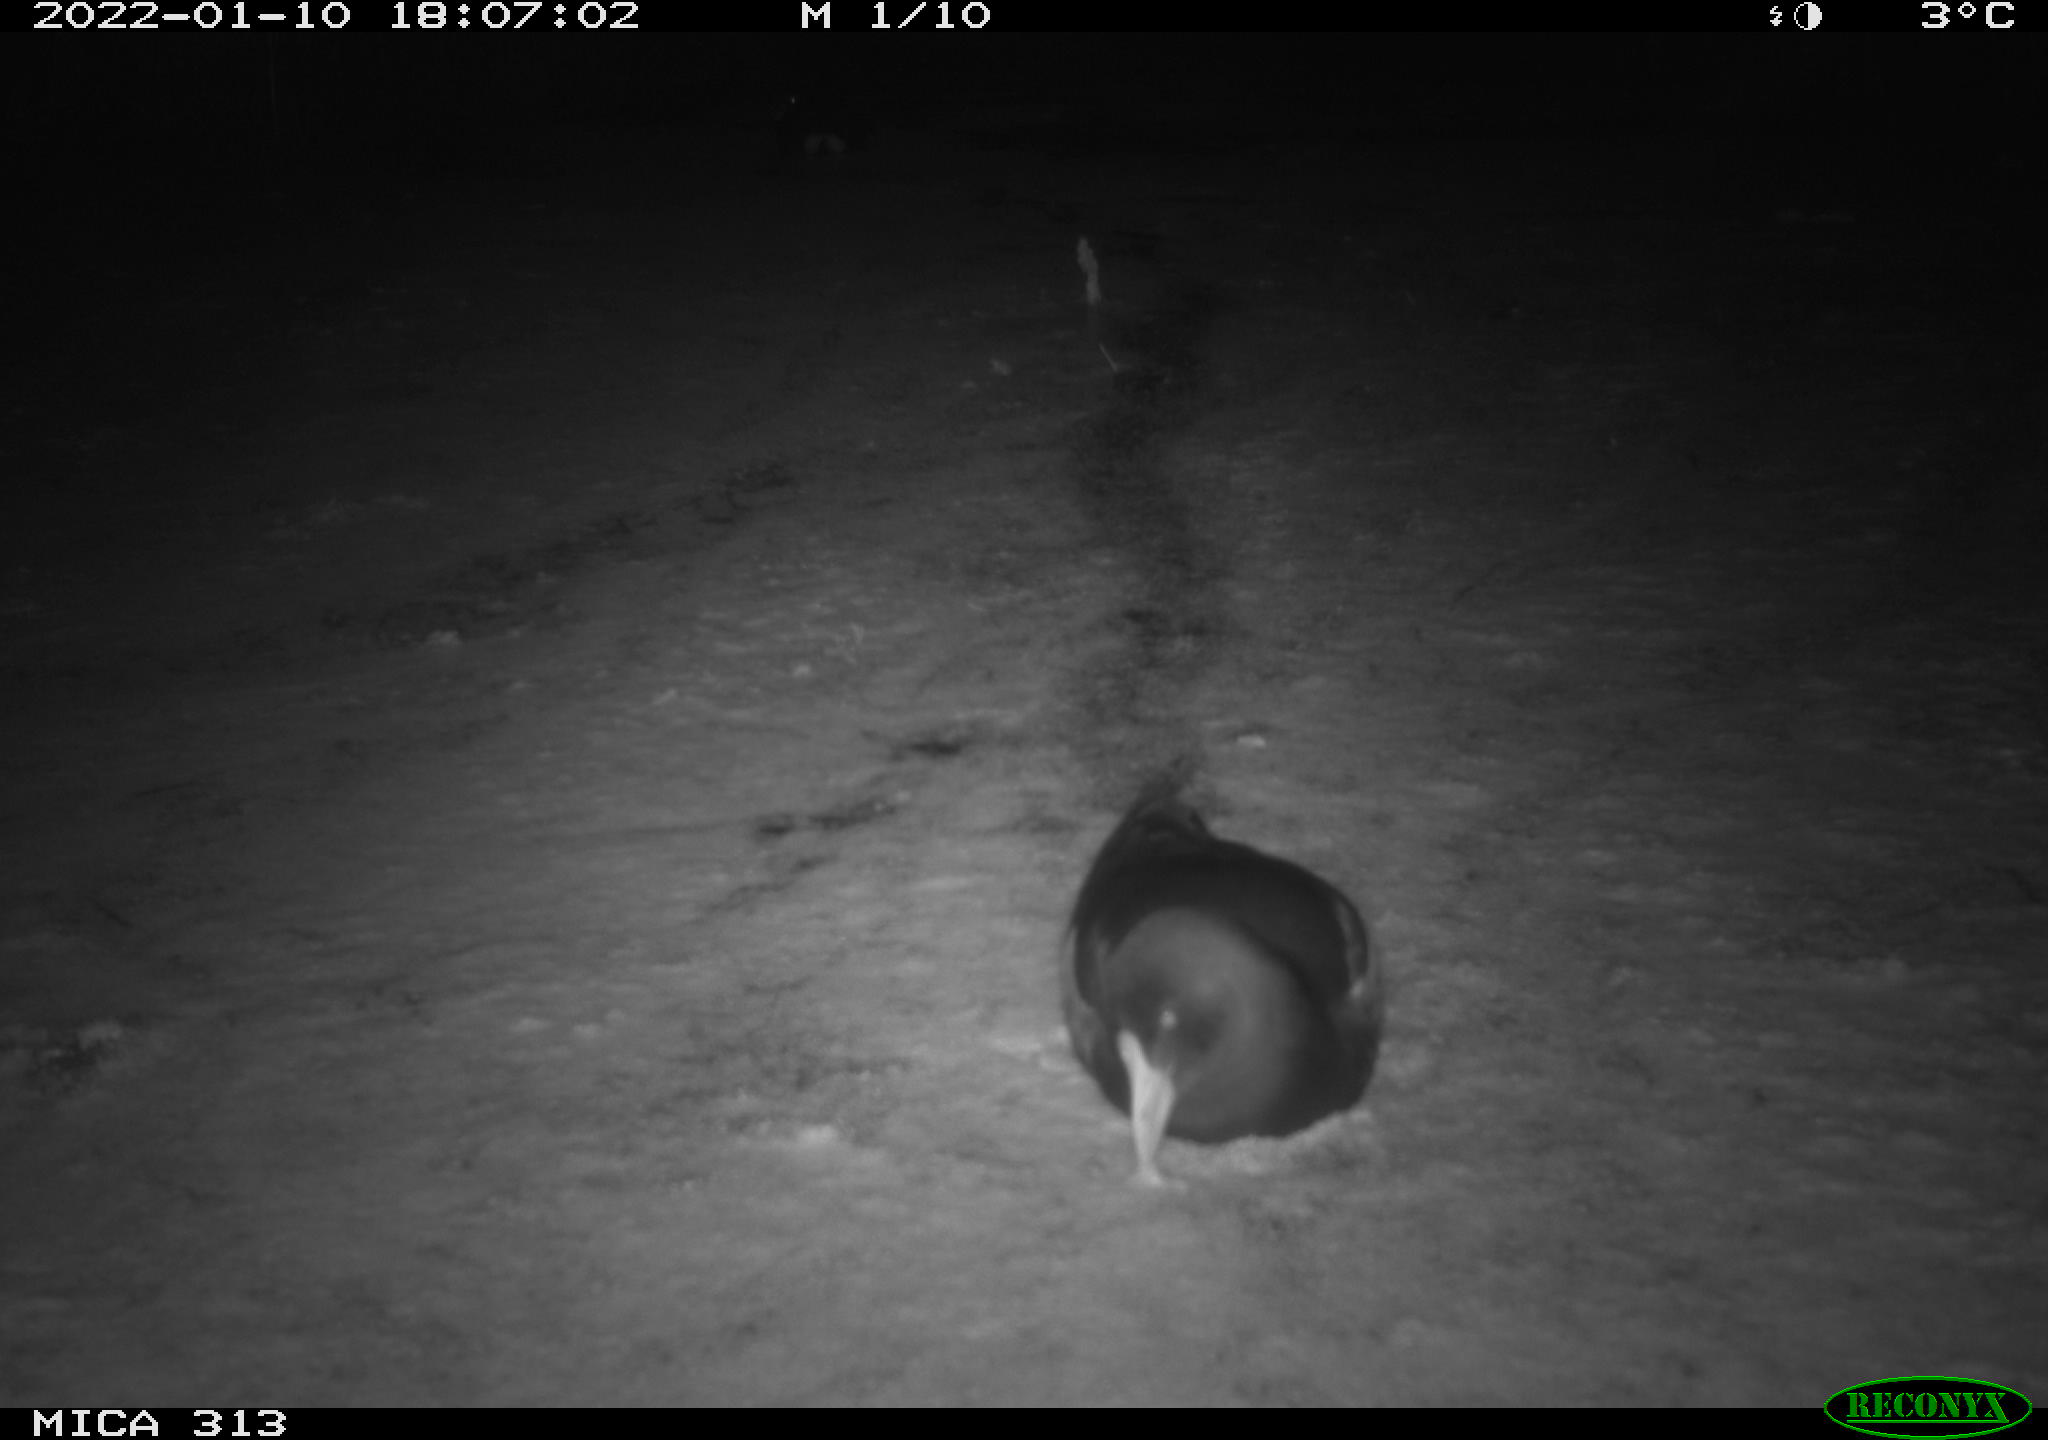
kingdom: Animalia
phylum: Chordata
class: Aves
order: Gruiformes
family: Rallidae
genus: Gallinula
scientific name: Gallinula chloropus
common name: Common moorhen
